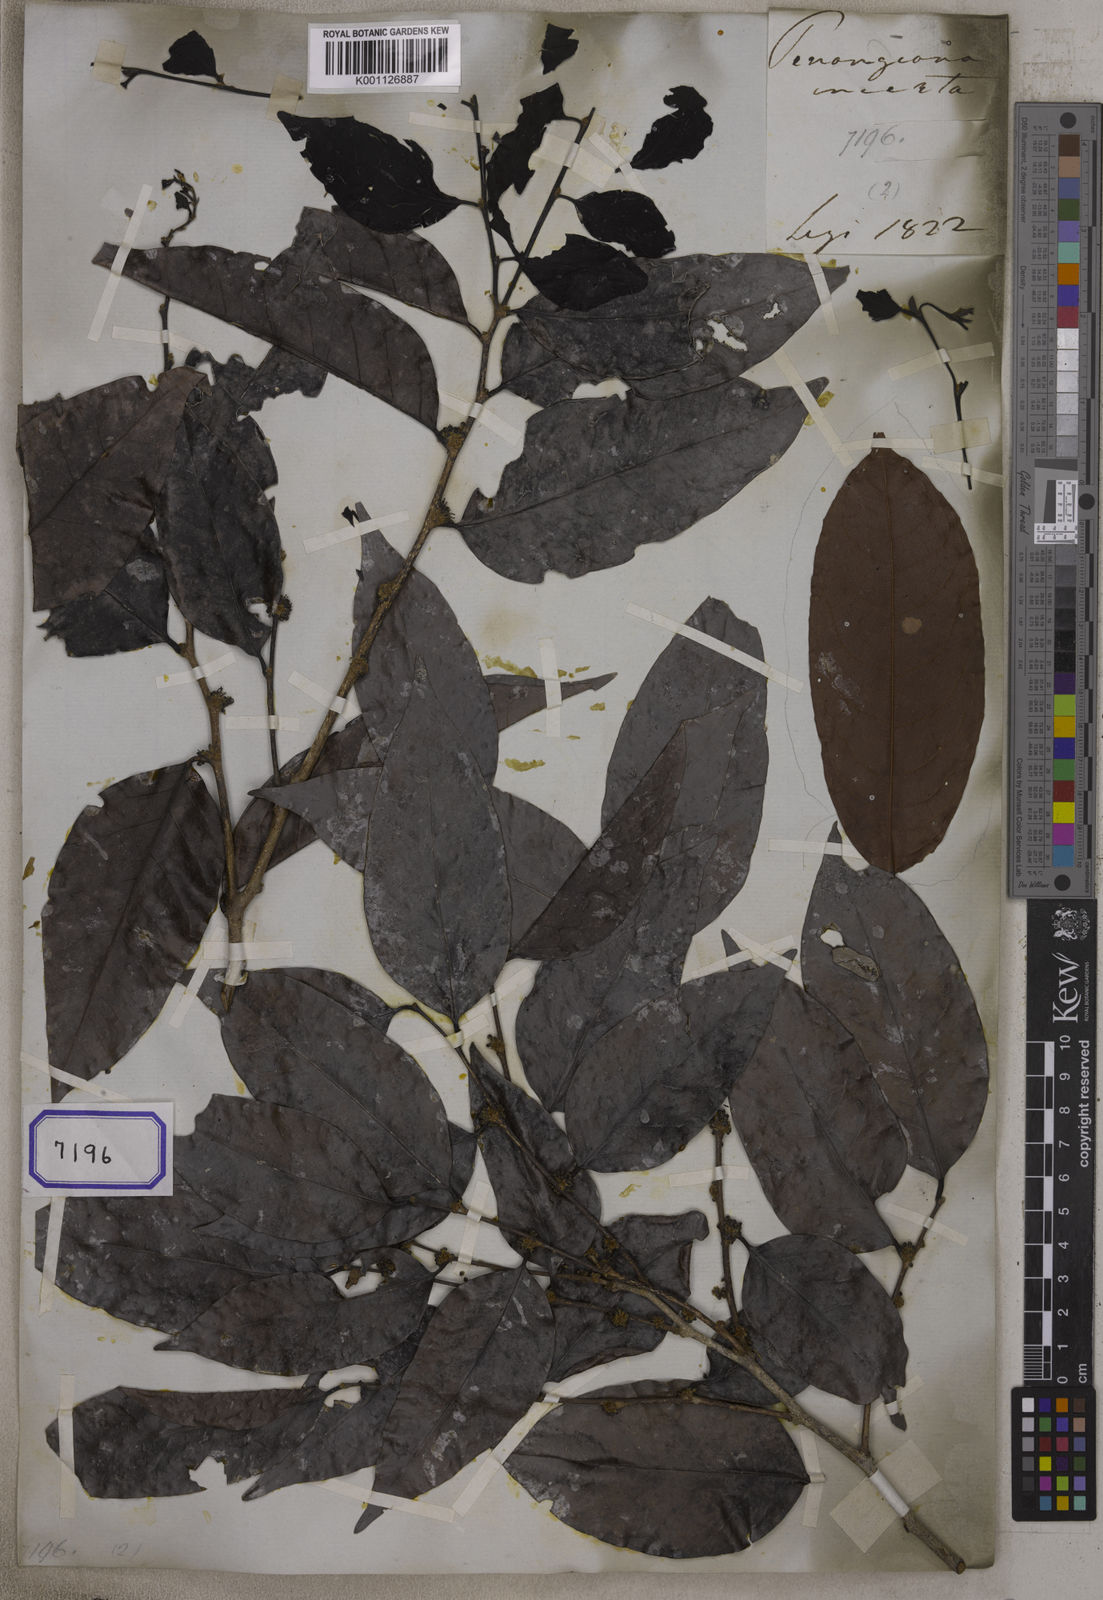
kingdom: Plantae
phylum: Tracheophyta
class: Magnoliopsida
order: Malpighiales
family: Salicaceae
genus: Casearia
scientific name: Casearia
